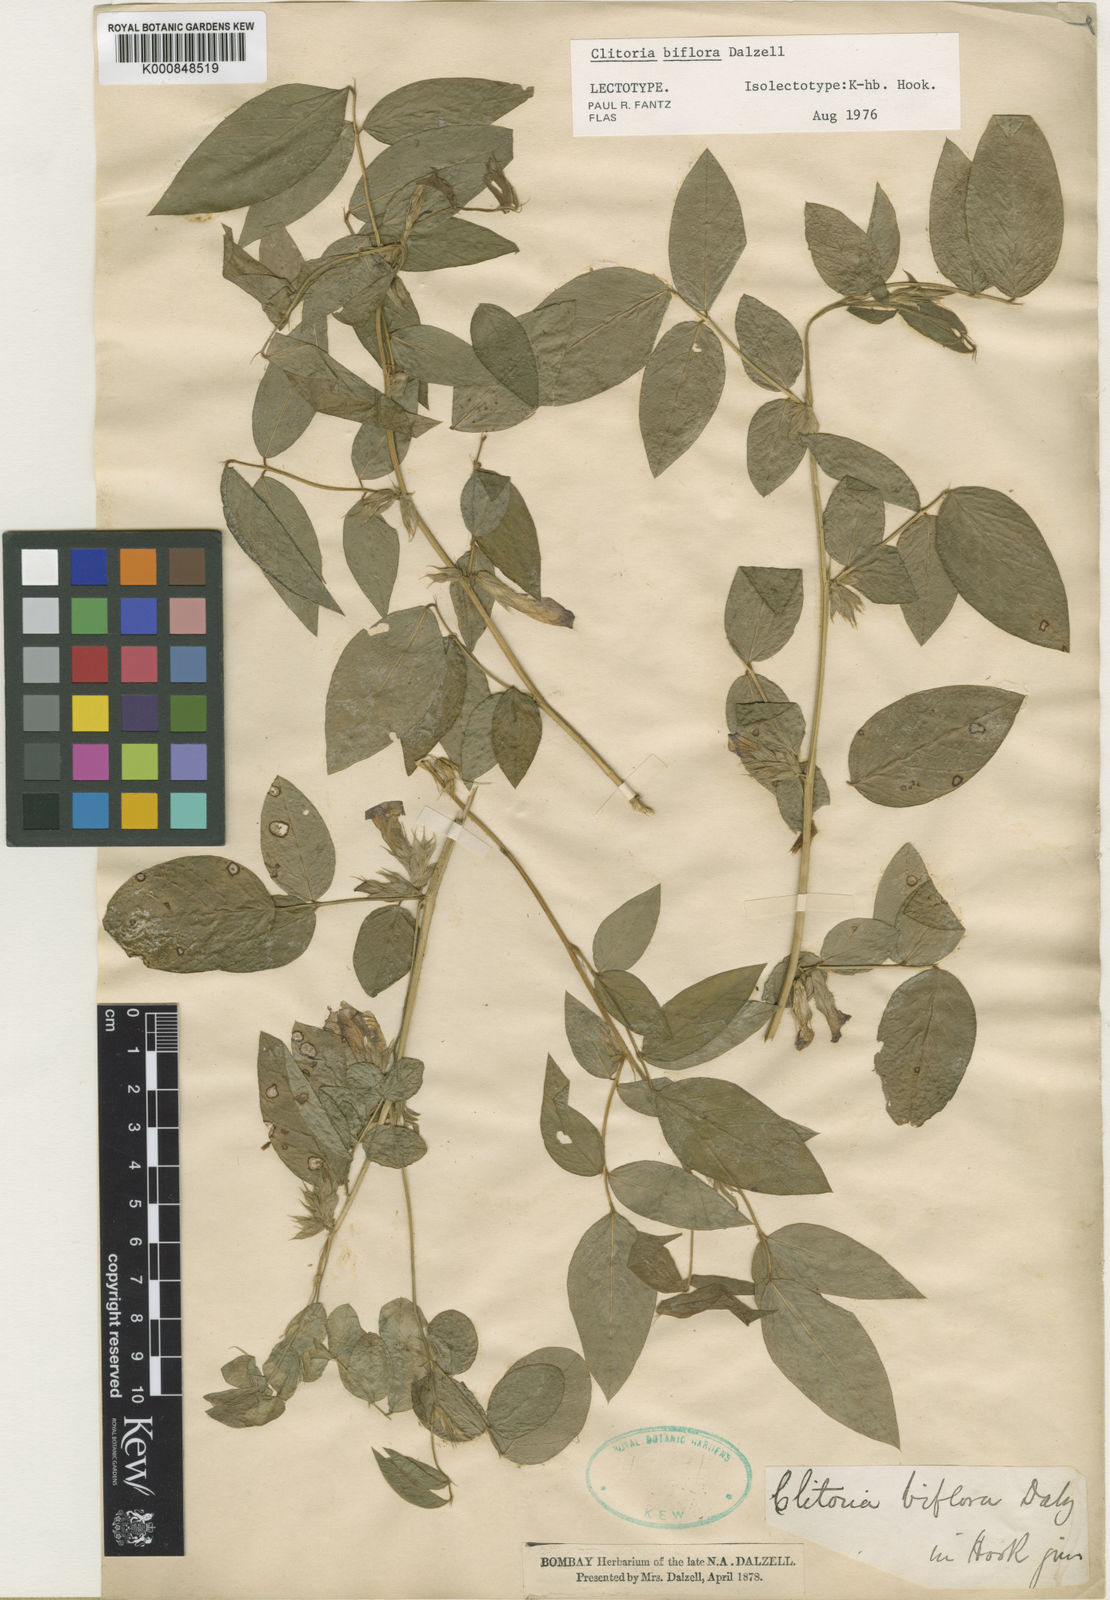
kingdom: Plantae
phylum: Tracheophyta
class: Magnoliopsida
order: Fabales
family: Fabaceae
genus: Clitoria
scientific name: Clitoria annua
